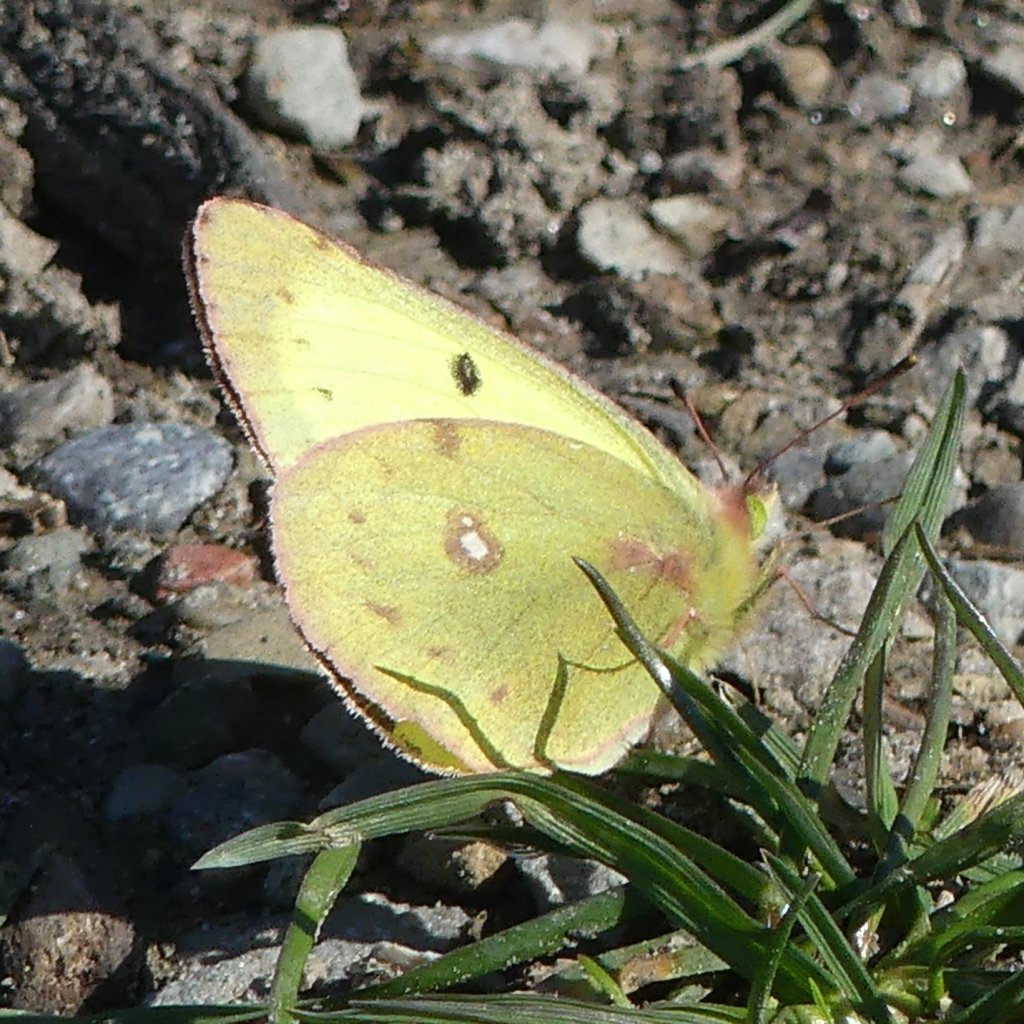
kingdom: Animalia
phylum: Arthropoda
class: Insecta
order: Lepidoptera
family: Pieridae
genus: Colias
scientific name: Colias philodice
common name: Clouded Sulphur
